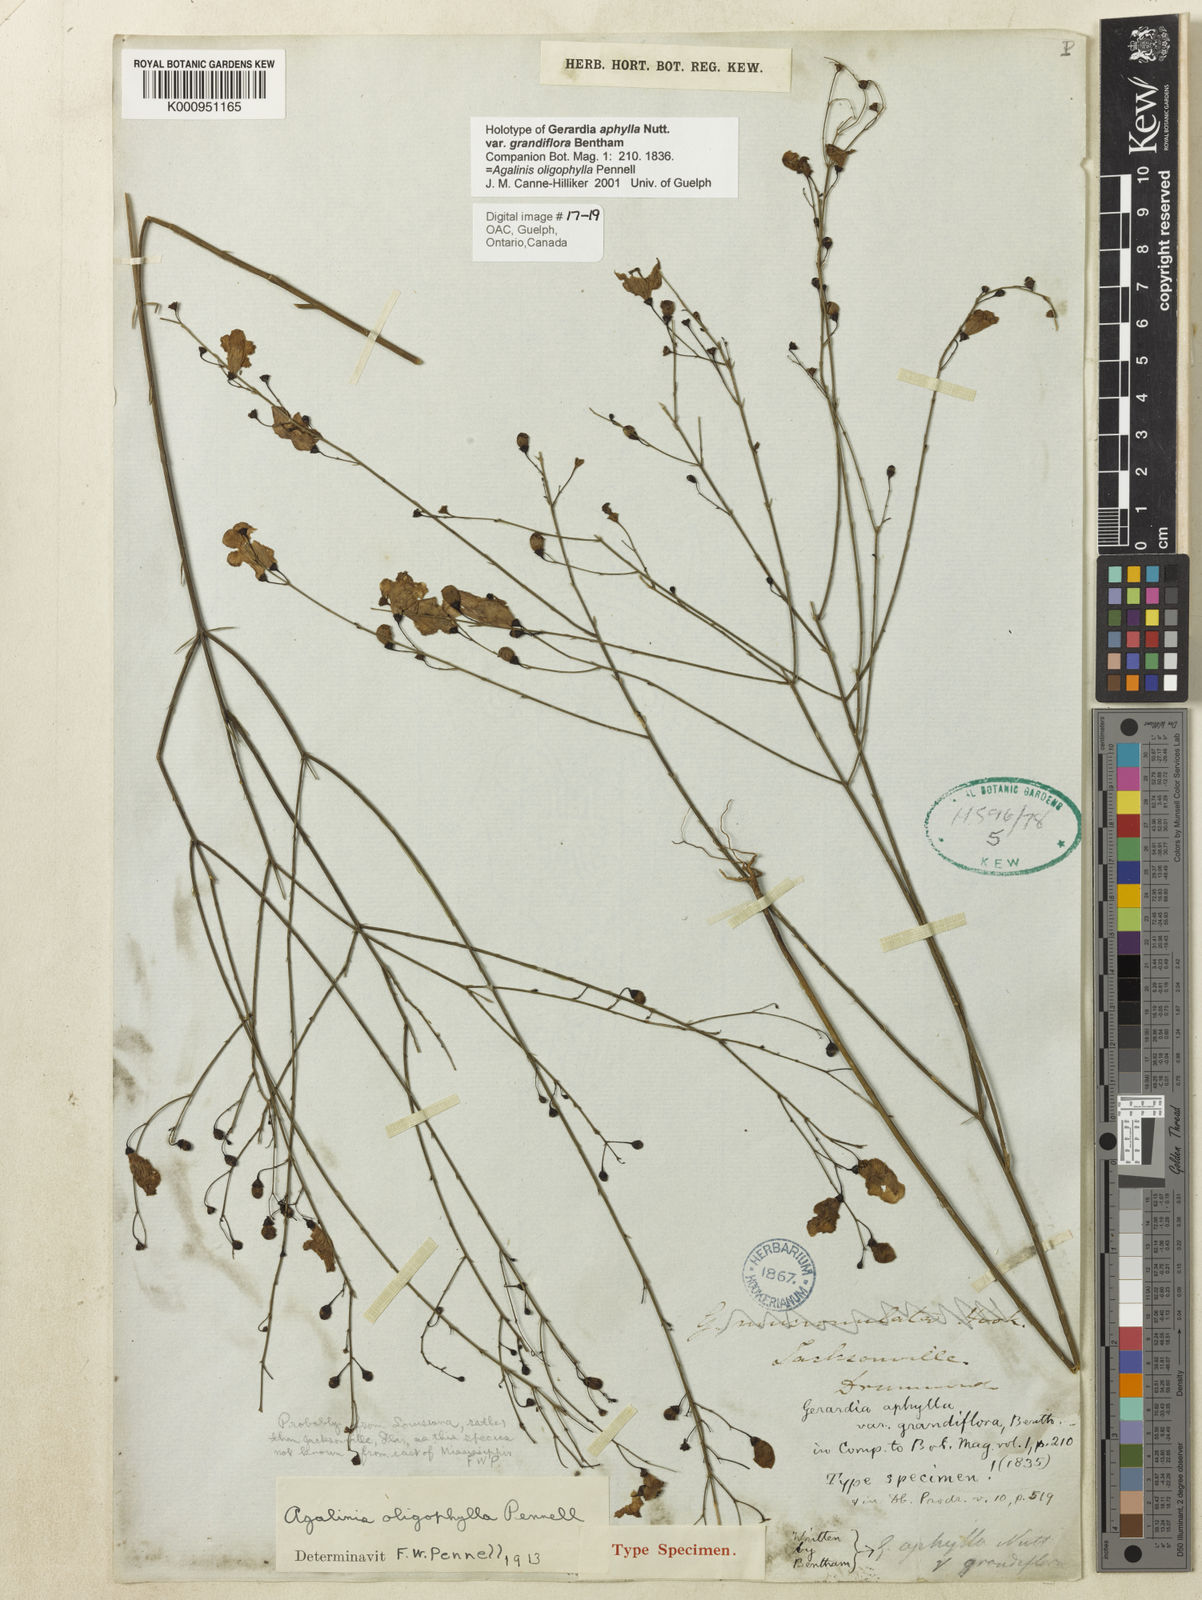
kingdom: Plantae
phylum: Tracheophyta
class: Magnoliopsida
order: Lamiales
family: Orobanchaceae
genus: Agalinis
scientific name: Agalinis oligophylla
